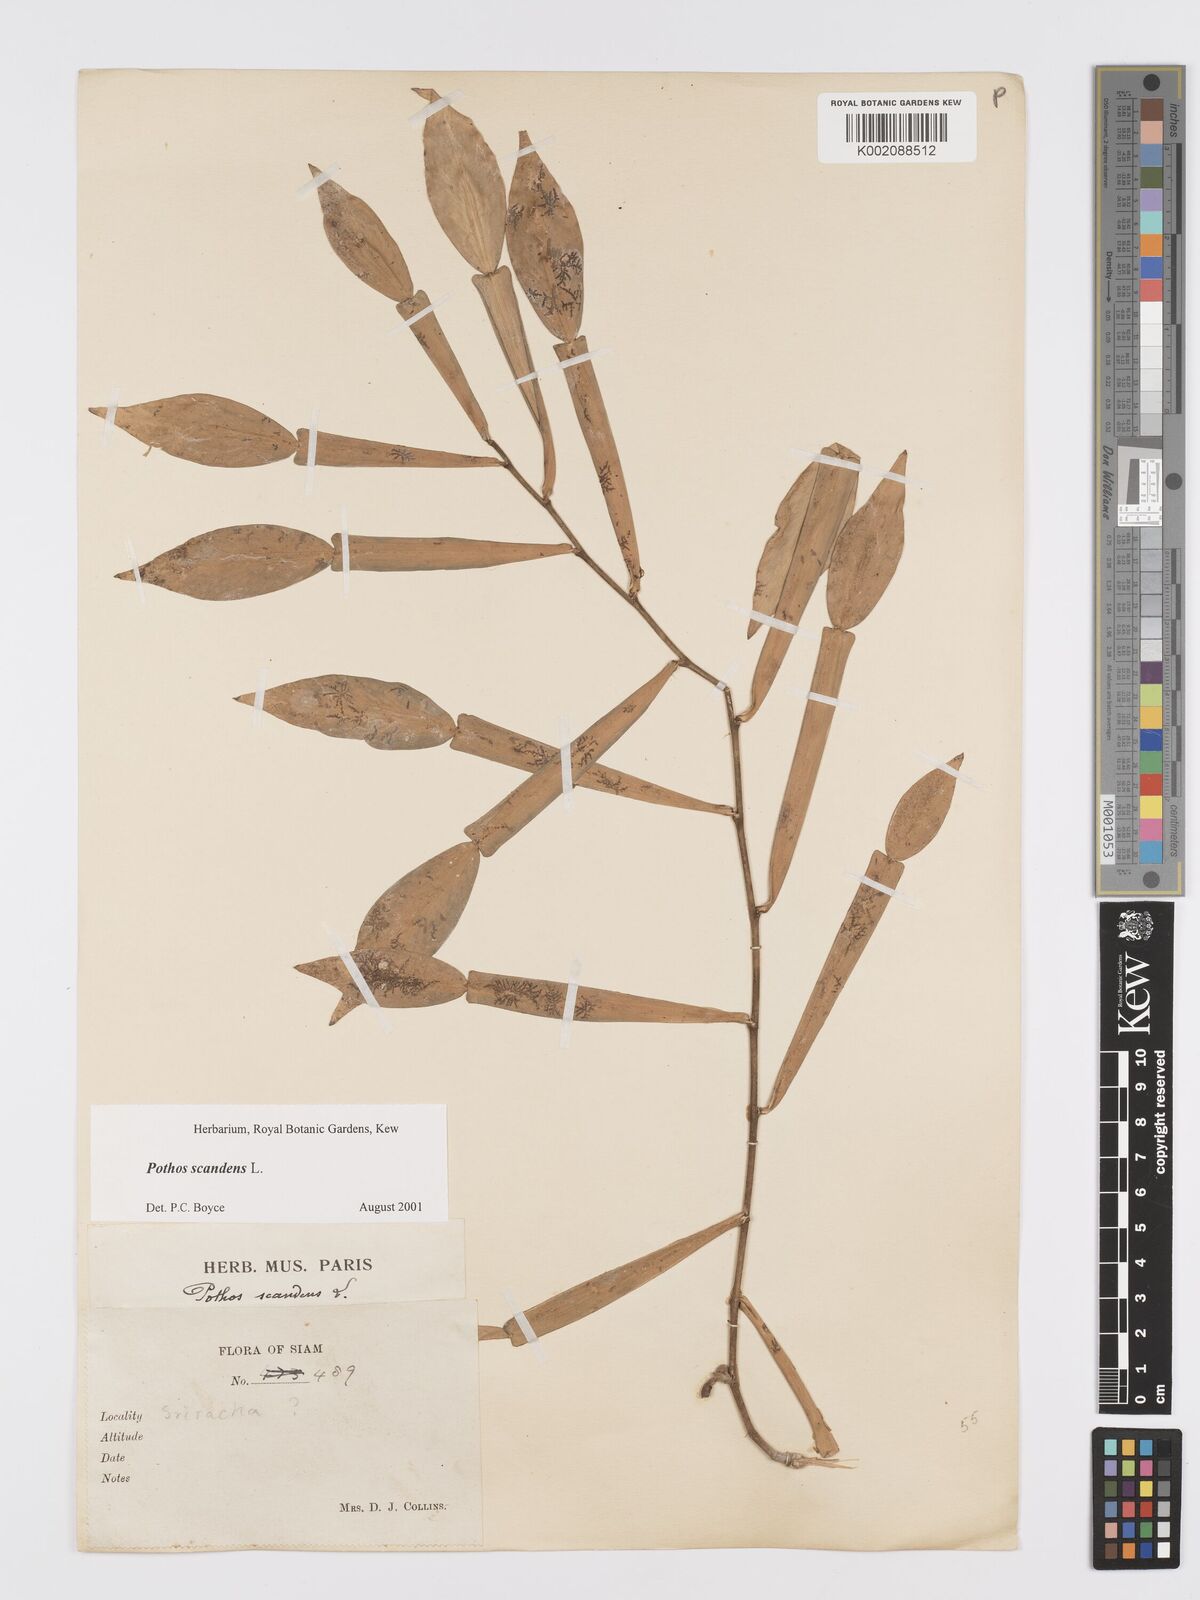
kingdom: Plantae
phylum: Tracheophyta
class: Liliopsida
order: Alismatales
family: Araceae
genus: Pothos
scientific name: Pothos scandens
